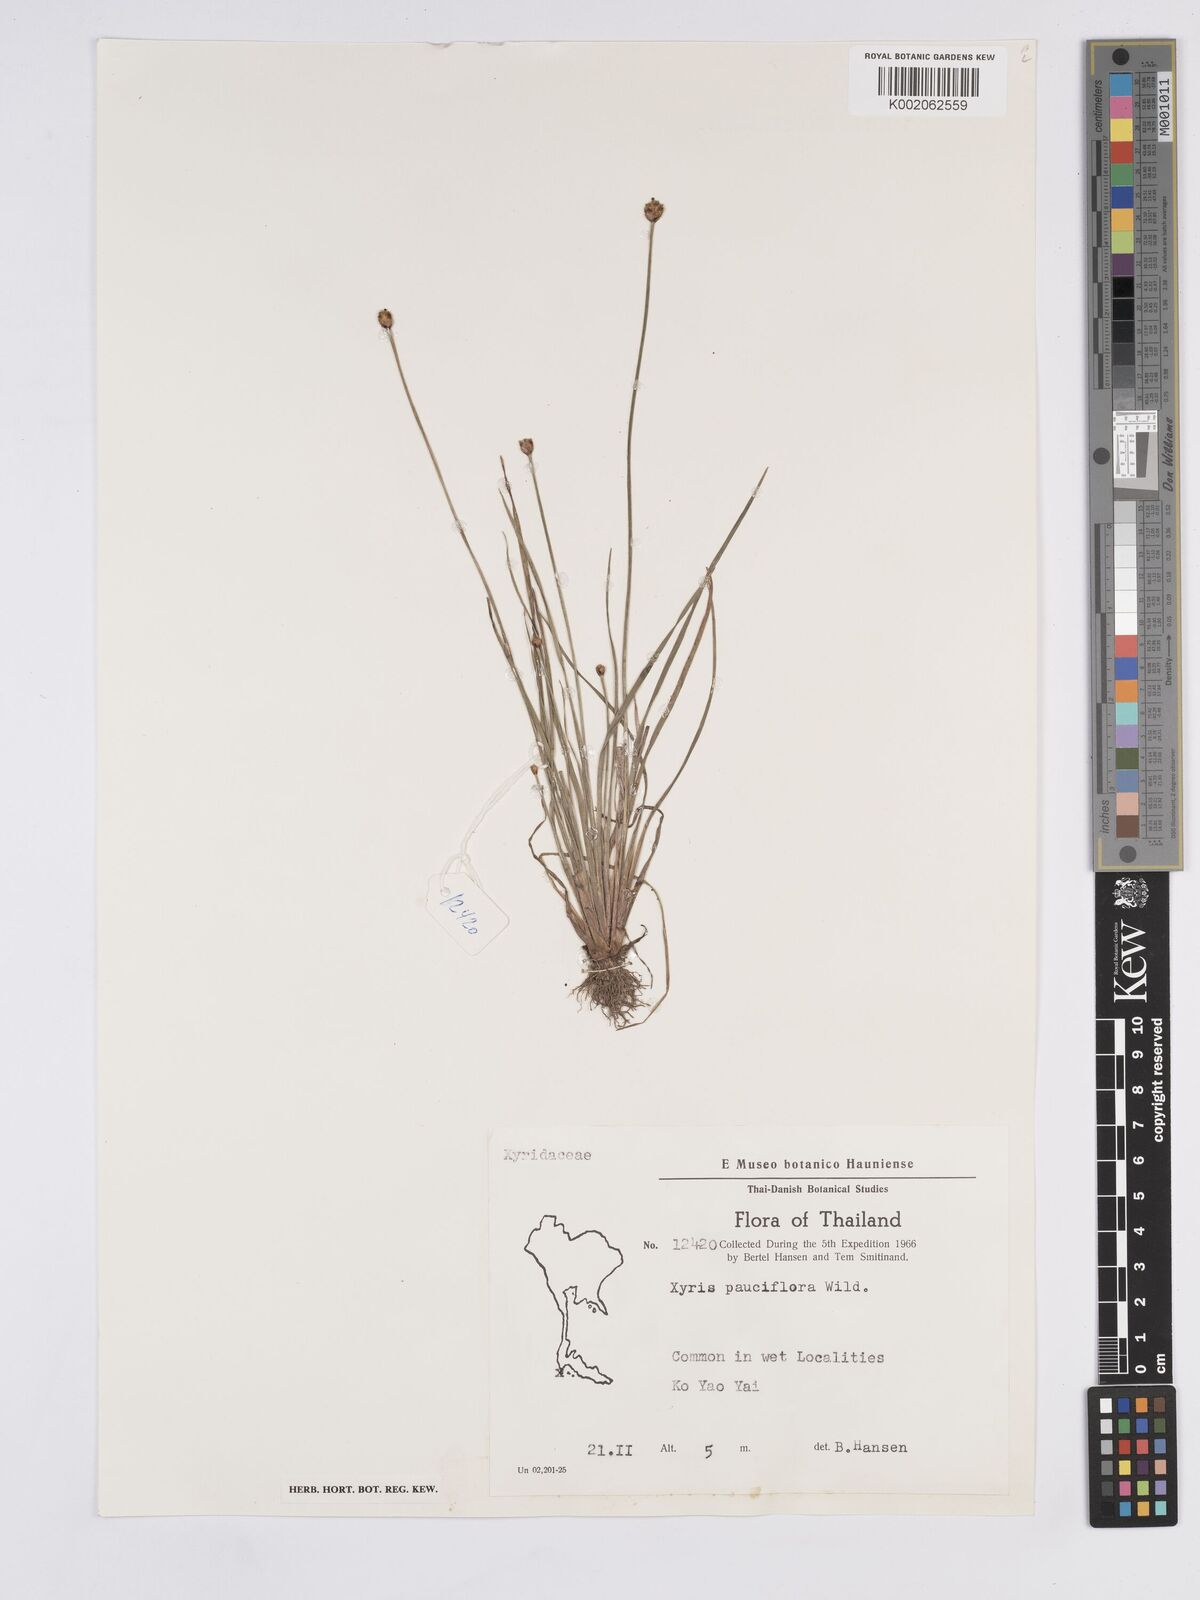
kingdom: Plantae
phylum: Tracheophyta
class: Liliopsida
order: Poales
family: Xyridaceae
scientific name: Xyridaceae
